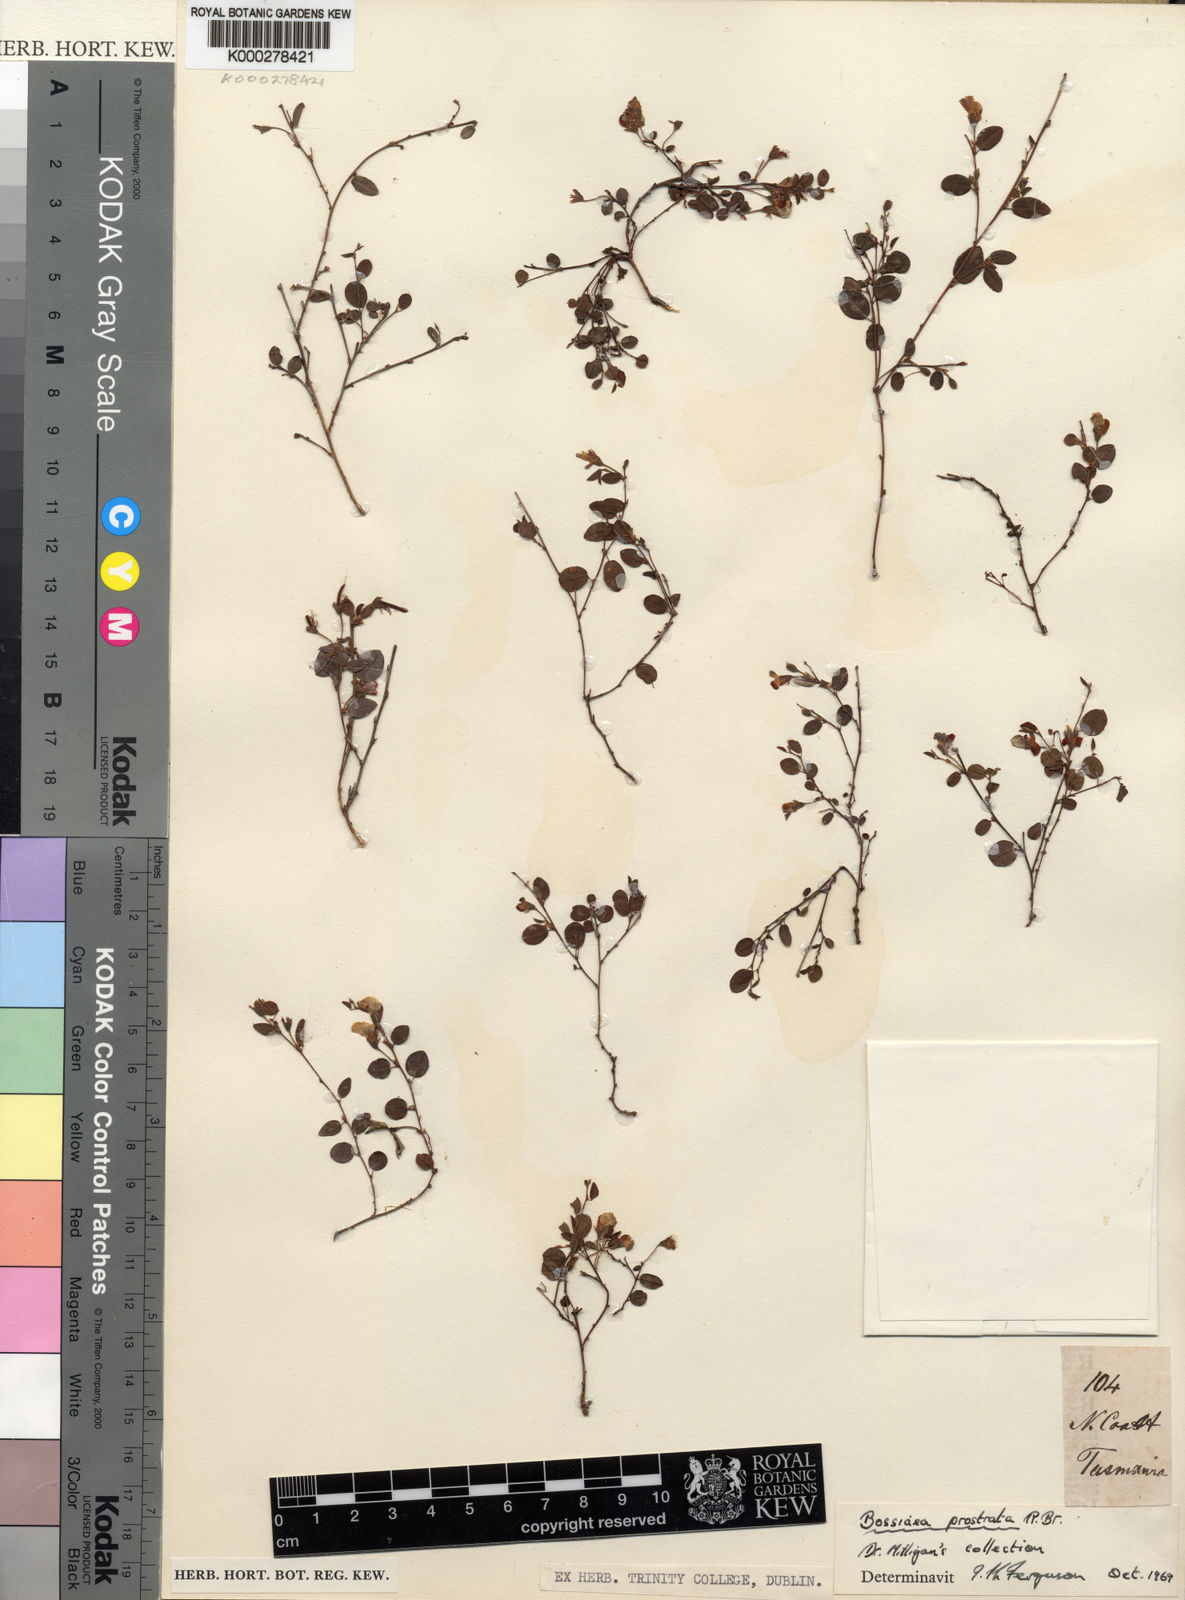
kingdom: Plantae
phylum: Tracheophyta
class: Magnoliopsida
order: Fabales
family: Fabaceae
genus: Bossiaea
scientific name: Bossiaea prostrata
